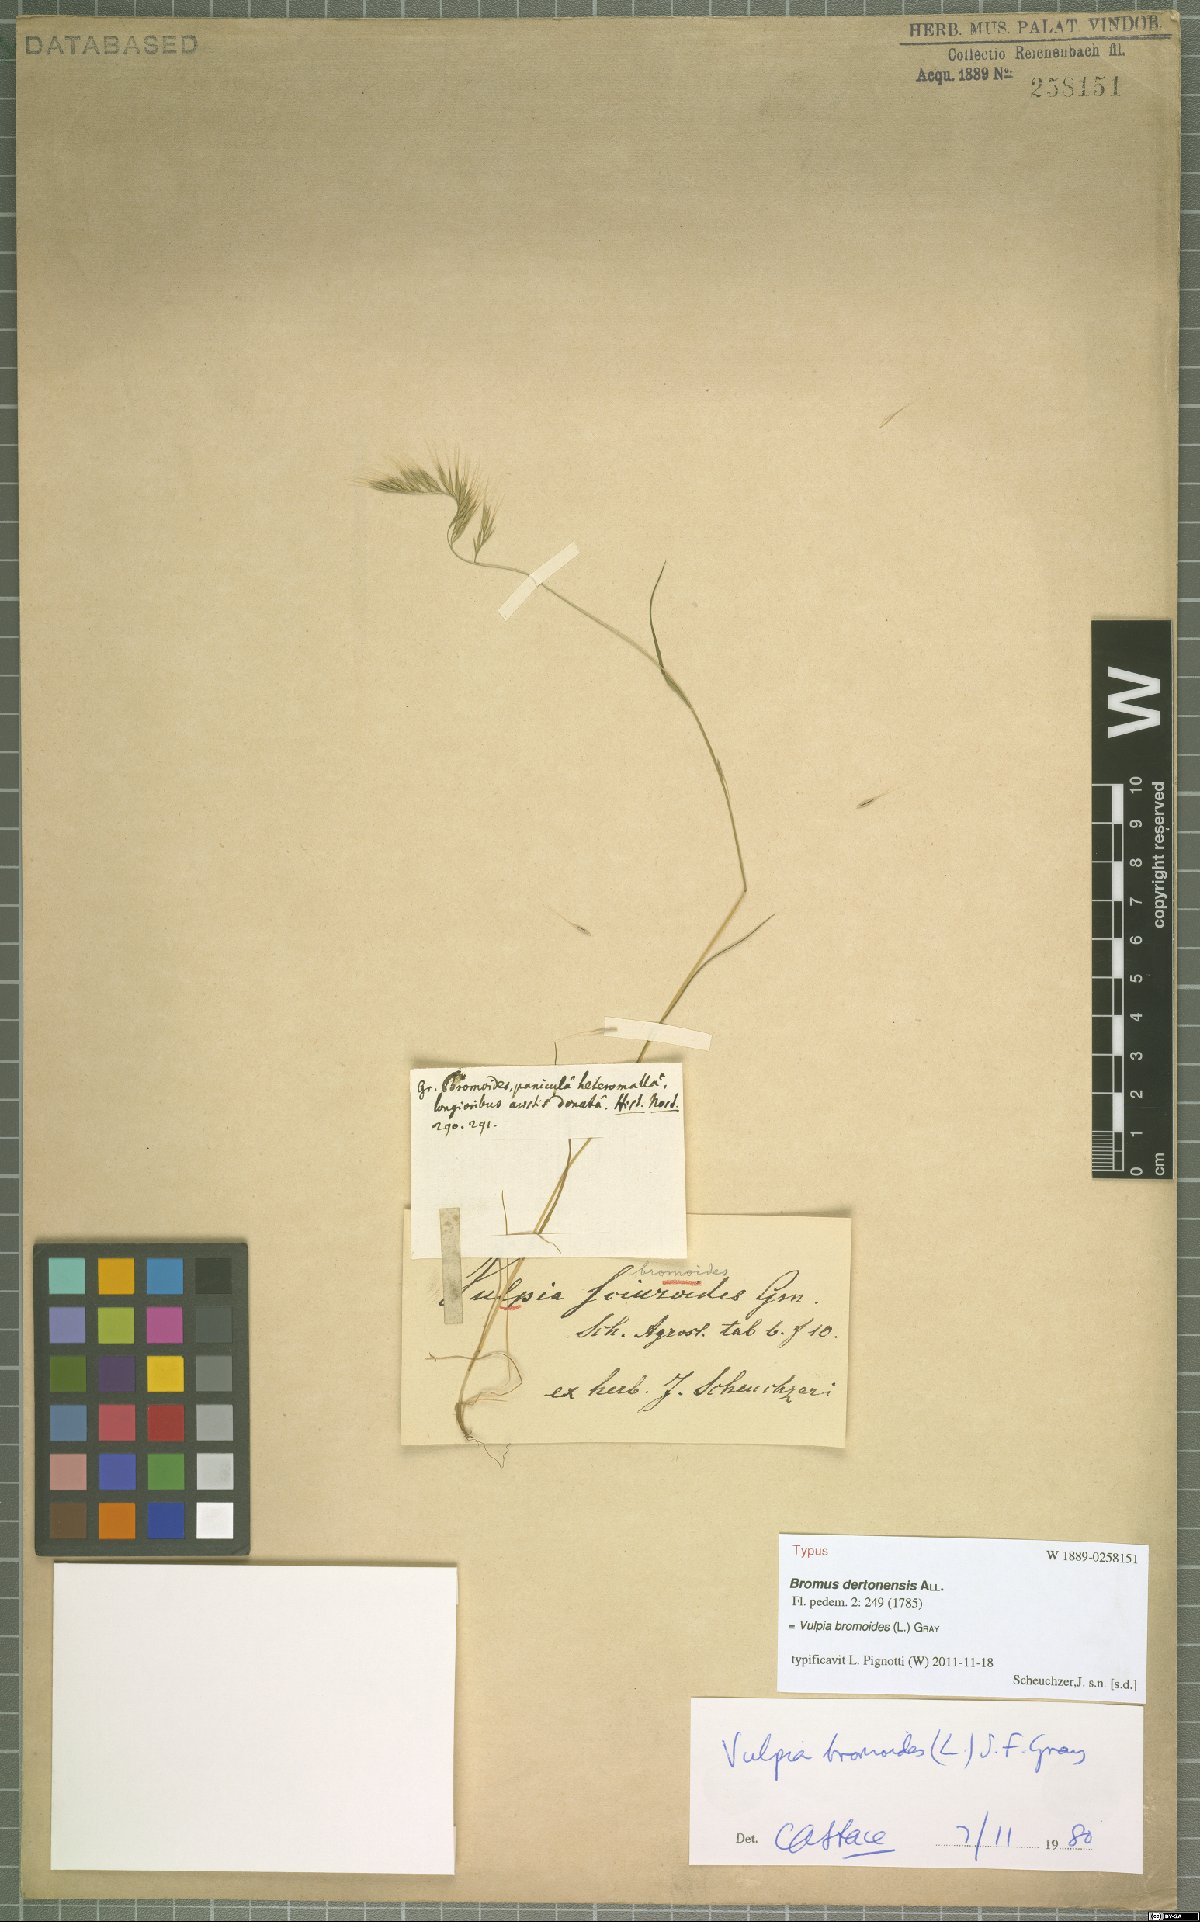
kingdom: Plantae
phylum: Tracheophyta
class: Liliopsida
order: Poales
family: Poaceae
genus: Festuca
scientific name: Festuca bromoides
